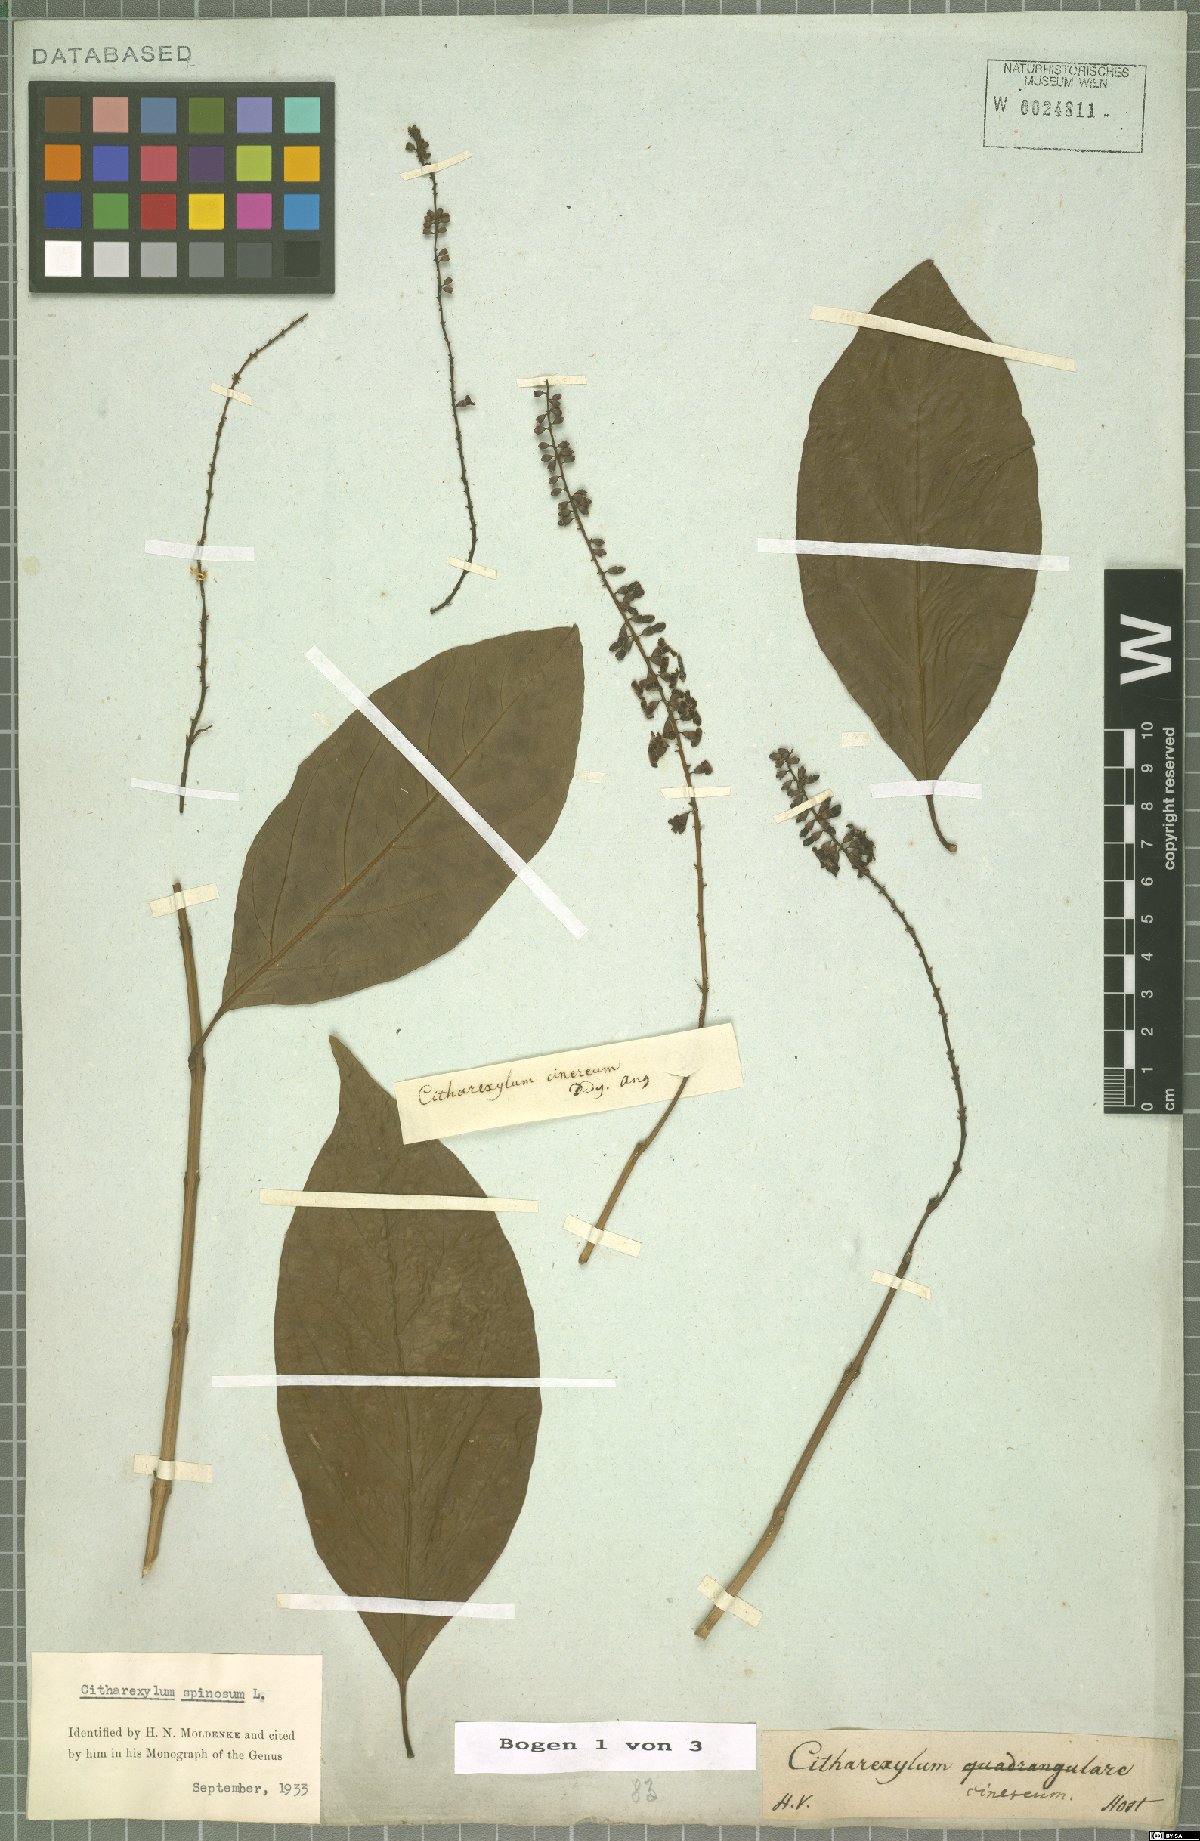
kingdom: Plantae
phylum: Tracheophyta
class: Magnoliopsida
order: Lamiales
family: Verbenaceae
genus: Citharexylum
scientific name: Citharexylum spinosum
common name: Fiddlewood
